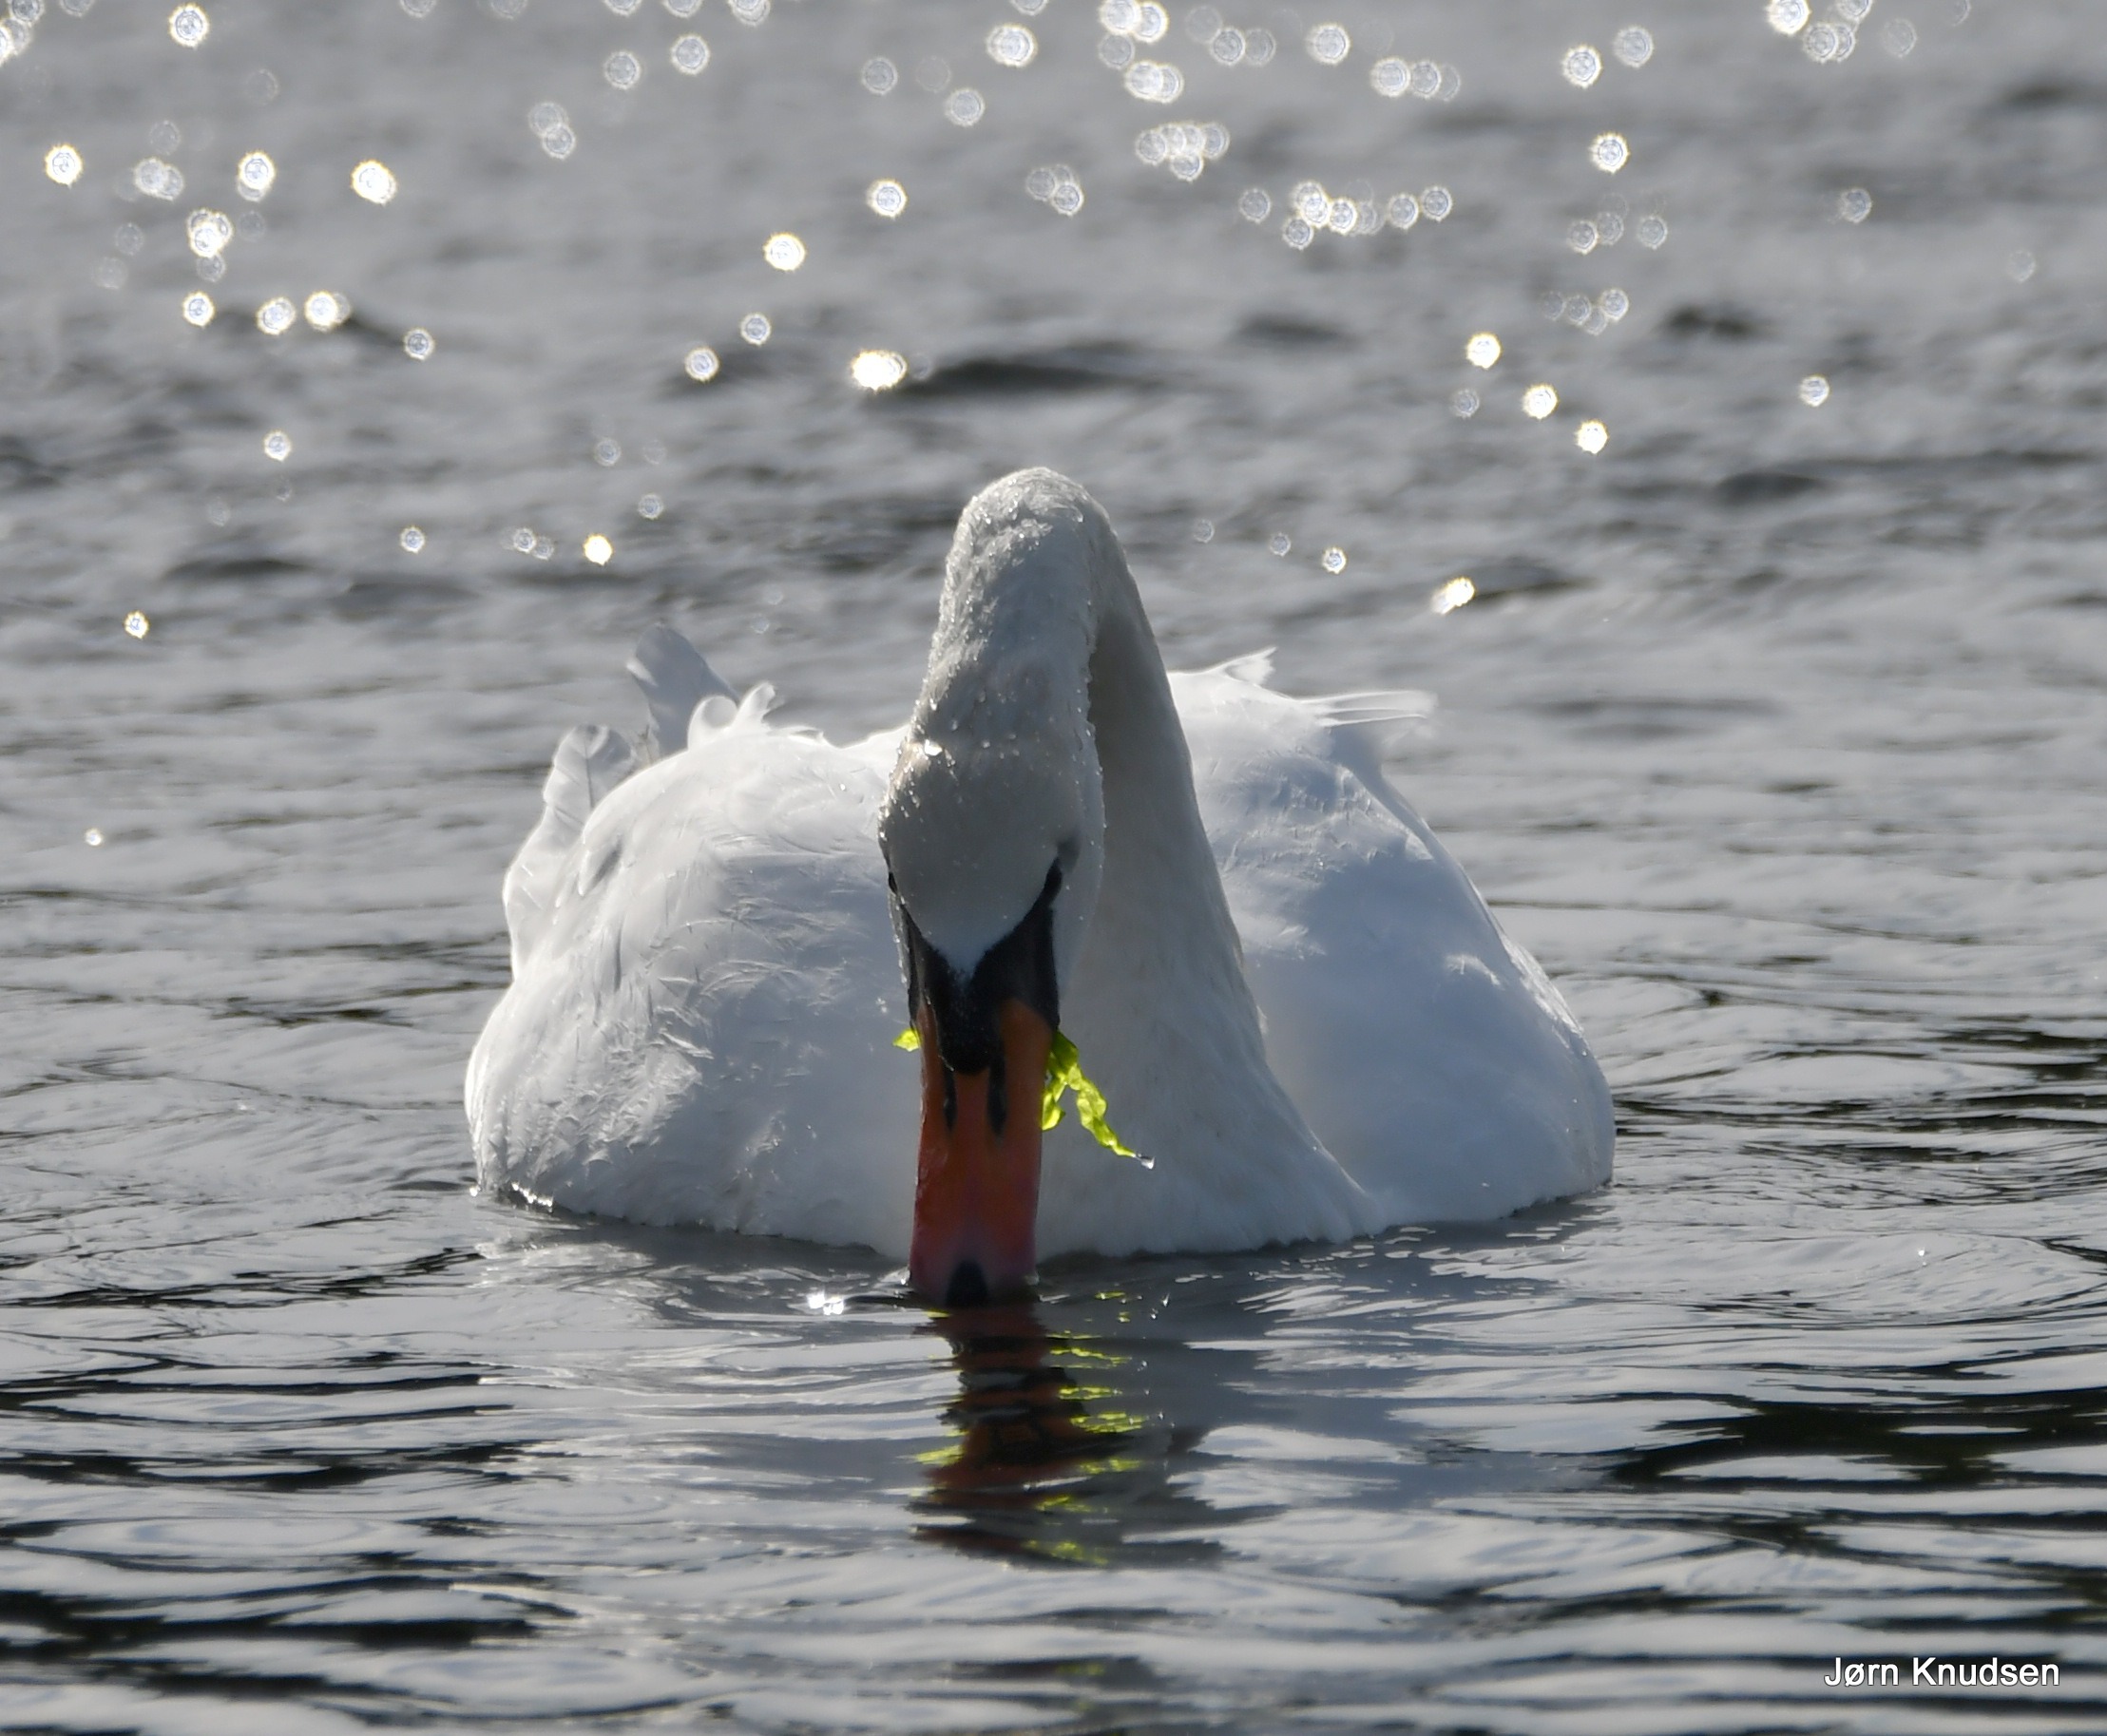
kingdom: Animalia
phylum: Chordata
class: Aves
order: Anseriformes
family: Anatidae
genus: Cygnus
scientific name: Cygnus olor
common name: Knopsvane
